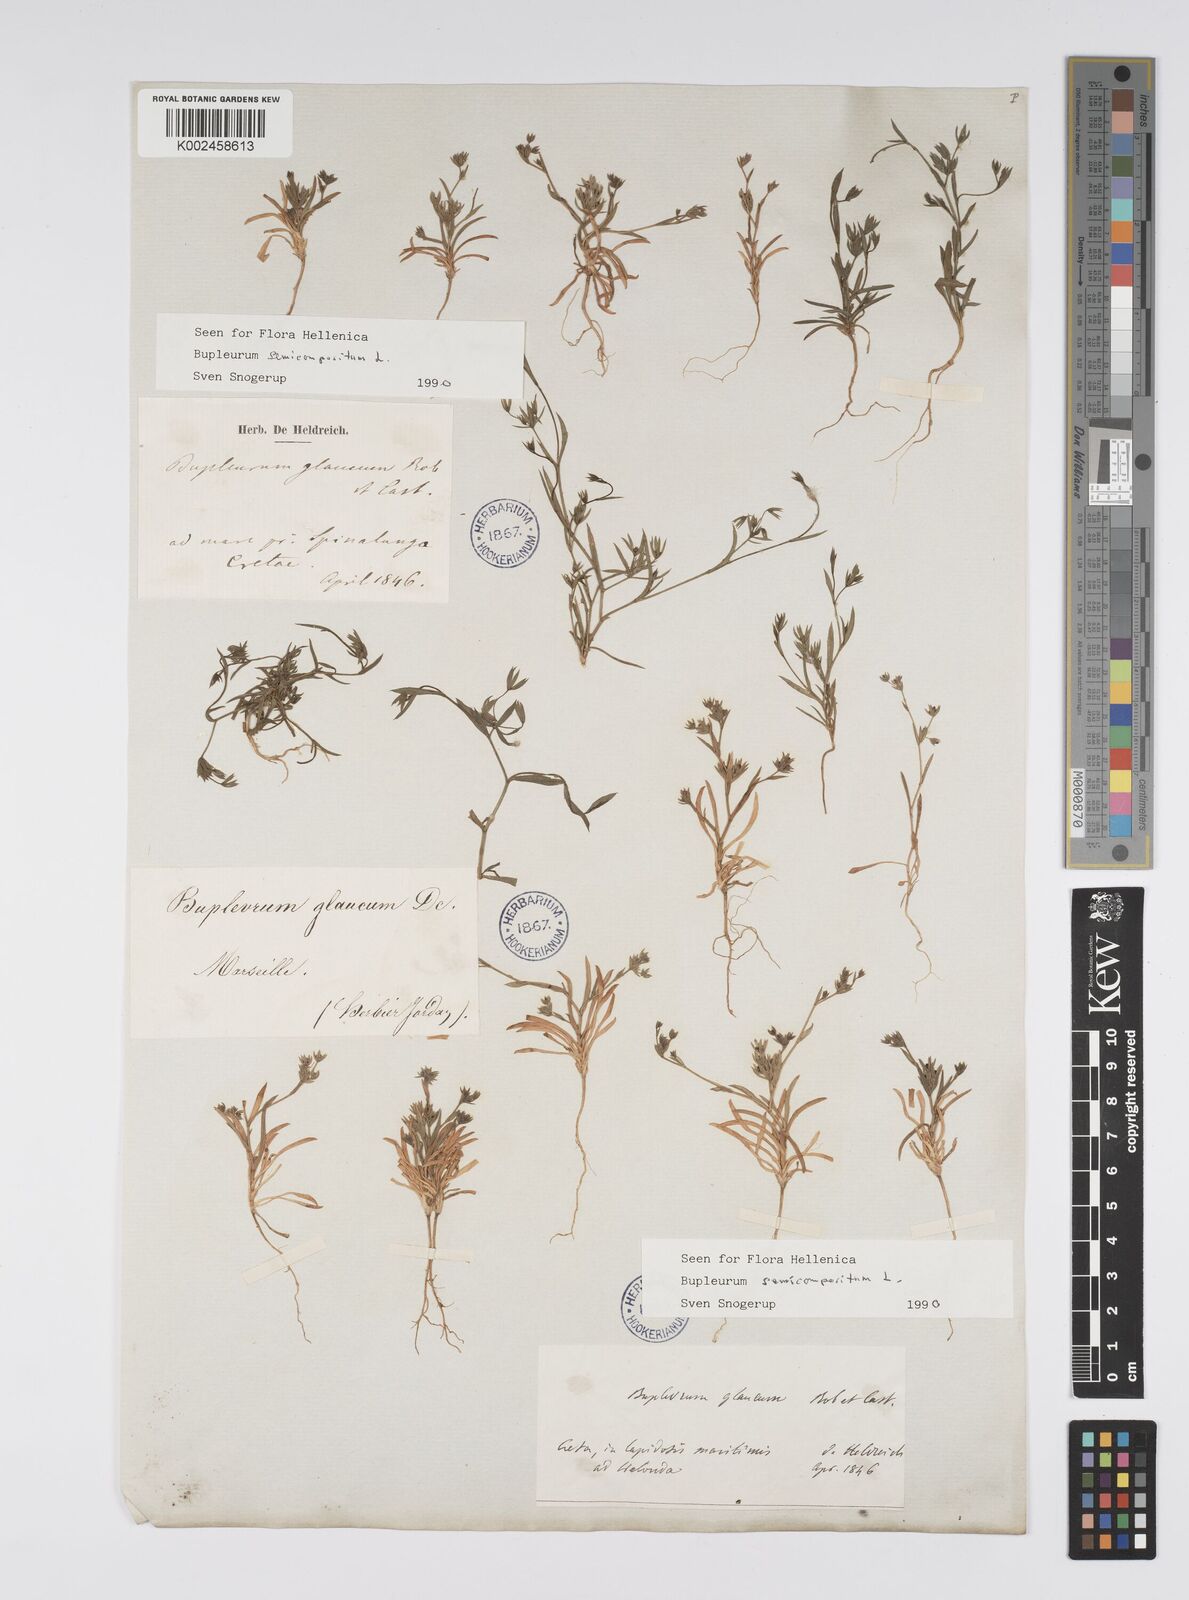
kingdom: Plantae
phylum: Tracheophyta
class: Magnoliopsida
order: Apiales
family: Apiaceae
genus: Bupleurum
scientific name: Bupleurum semicompositum
